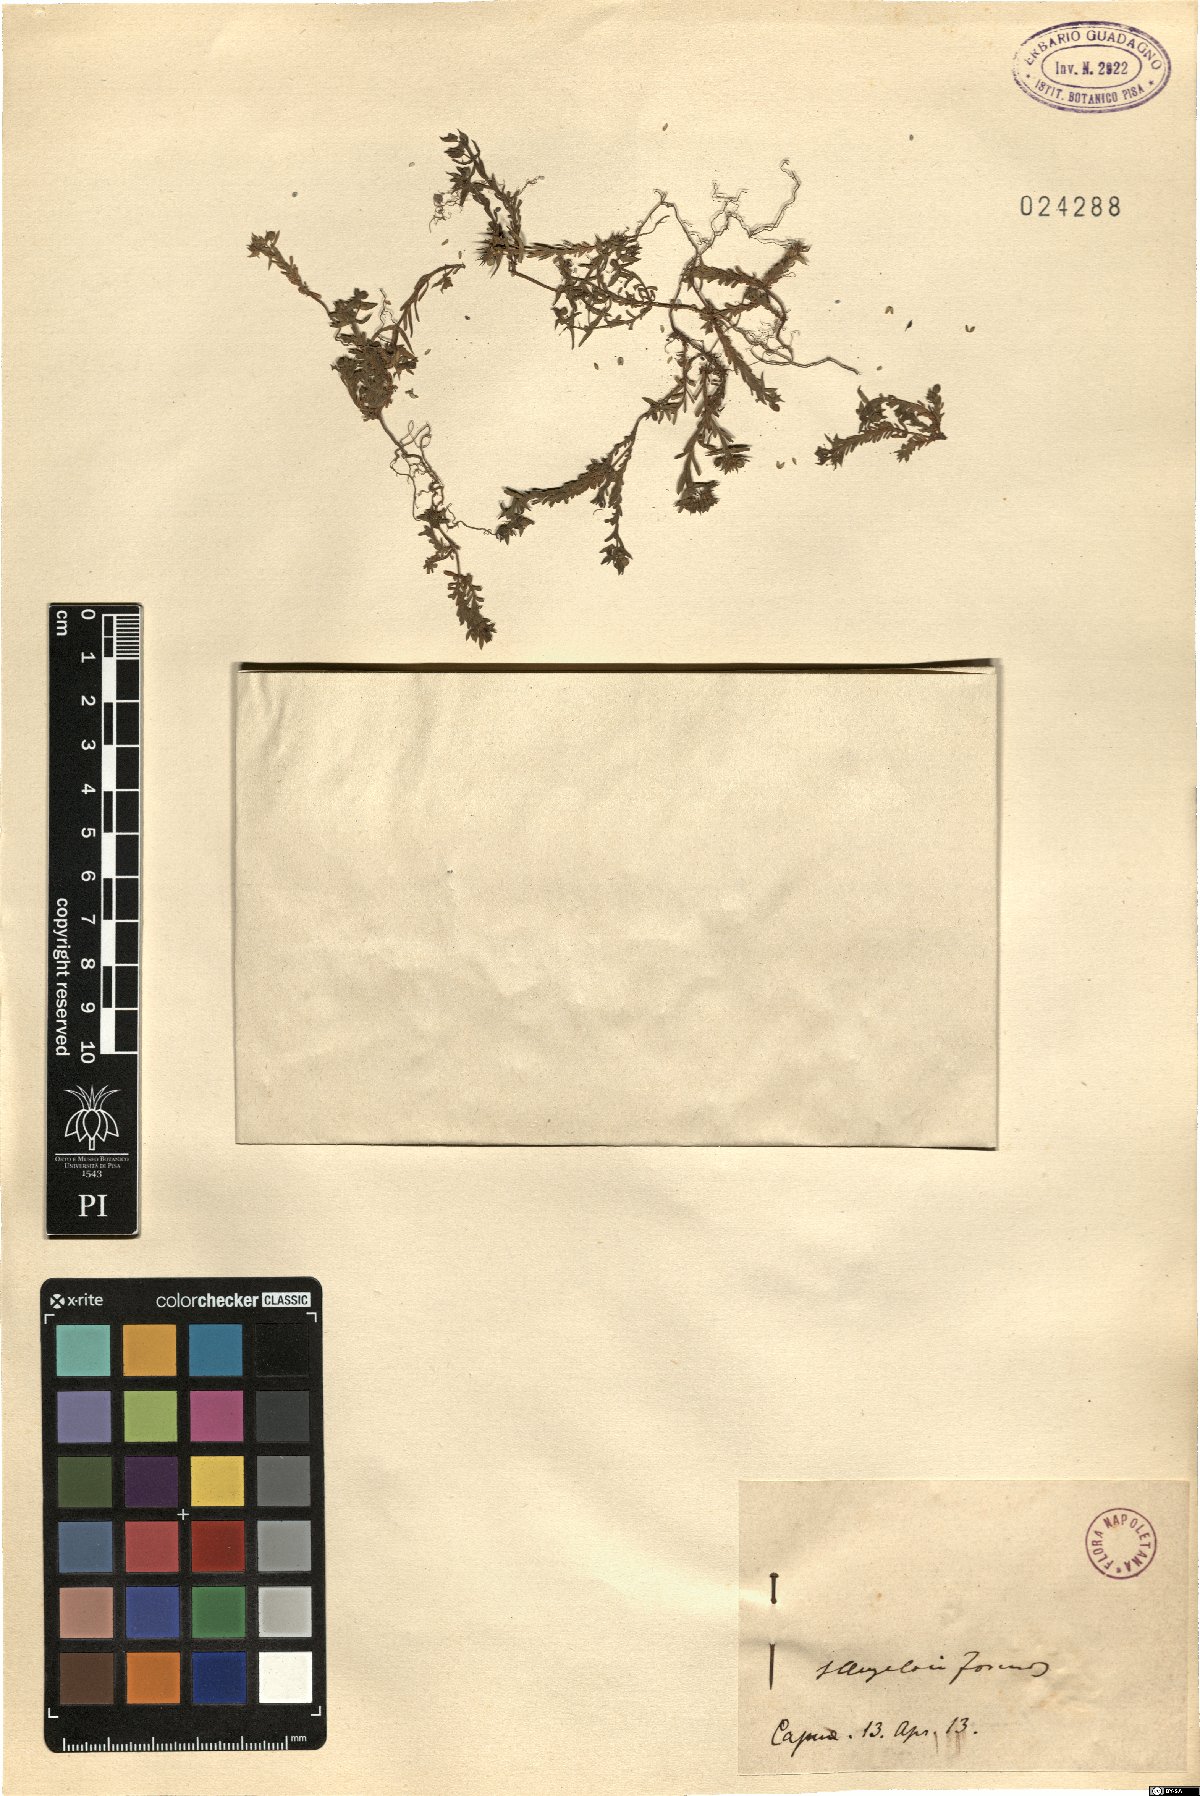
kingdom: Plantae
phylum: Tracheophyta
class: Magnoliopsida
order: Malpighiales
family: Euphorbiaceae
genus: Euphorbia
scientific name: Euphorbia
